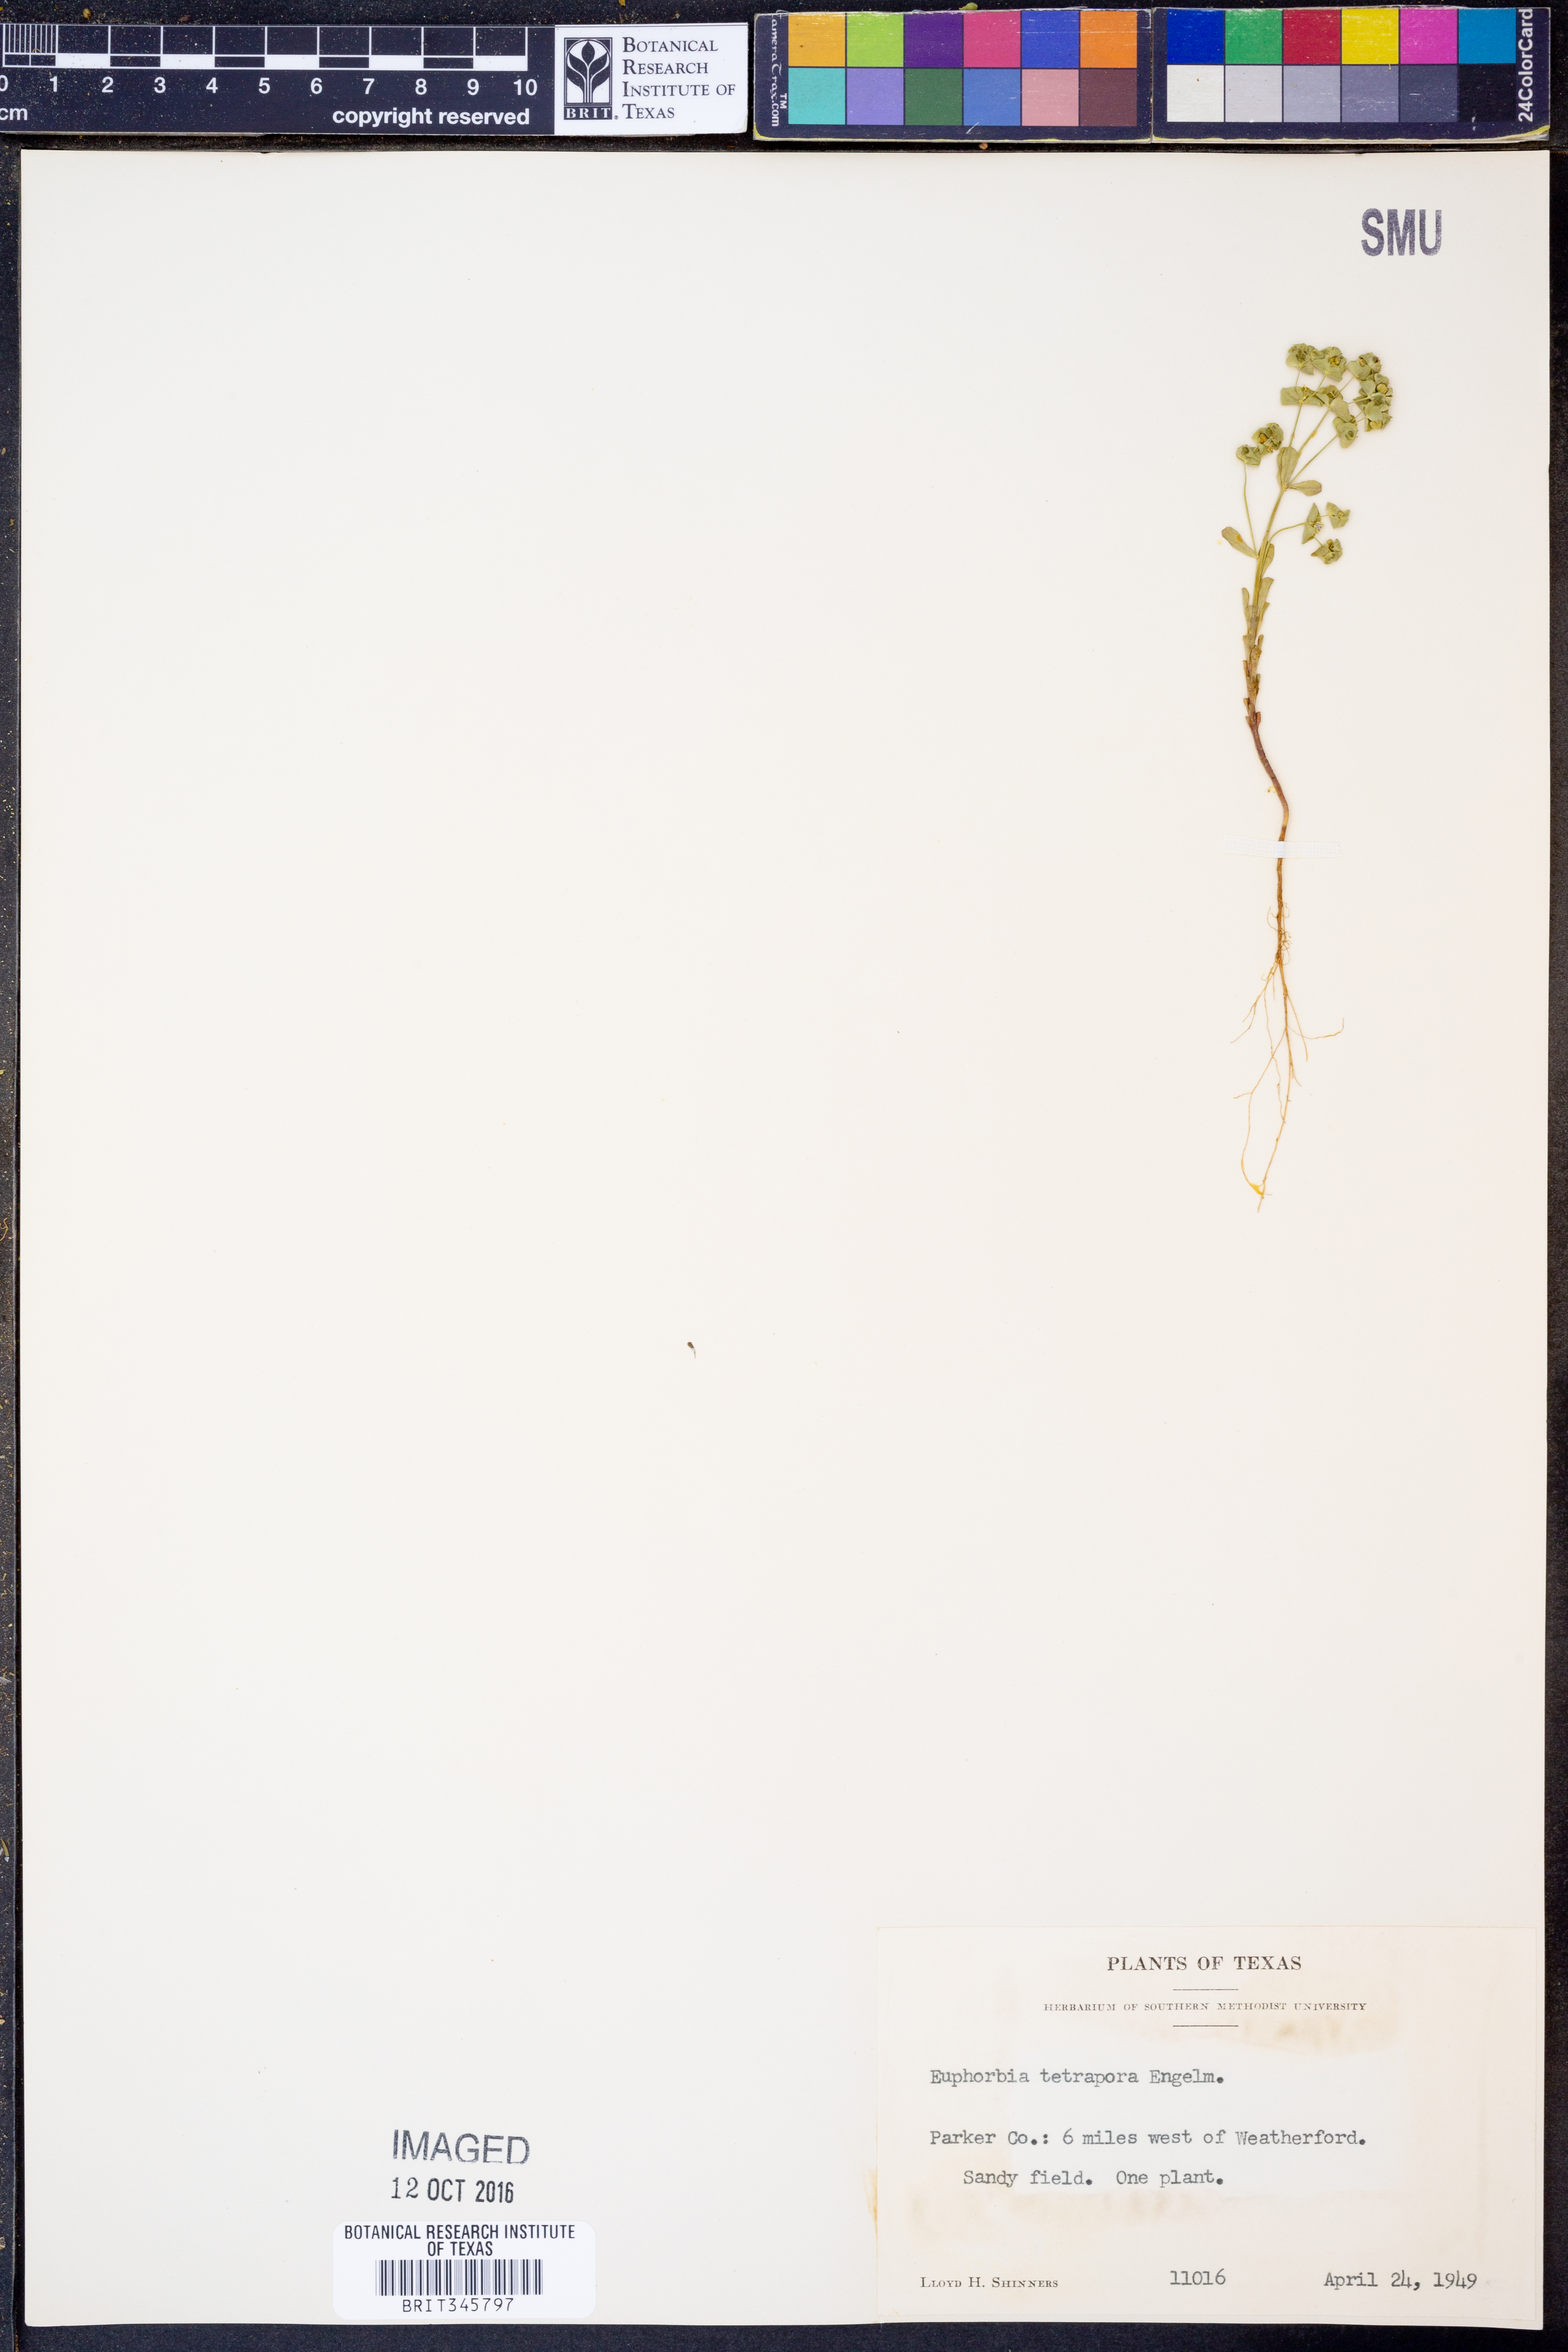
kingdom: Plantae
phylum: Tracheophyta
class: Magnoliopsida
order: Malpighiales
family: Euphorbiaceae
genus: Euphorbia
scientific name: Euphorbia tetrapora
